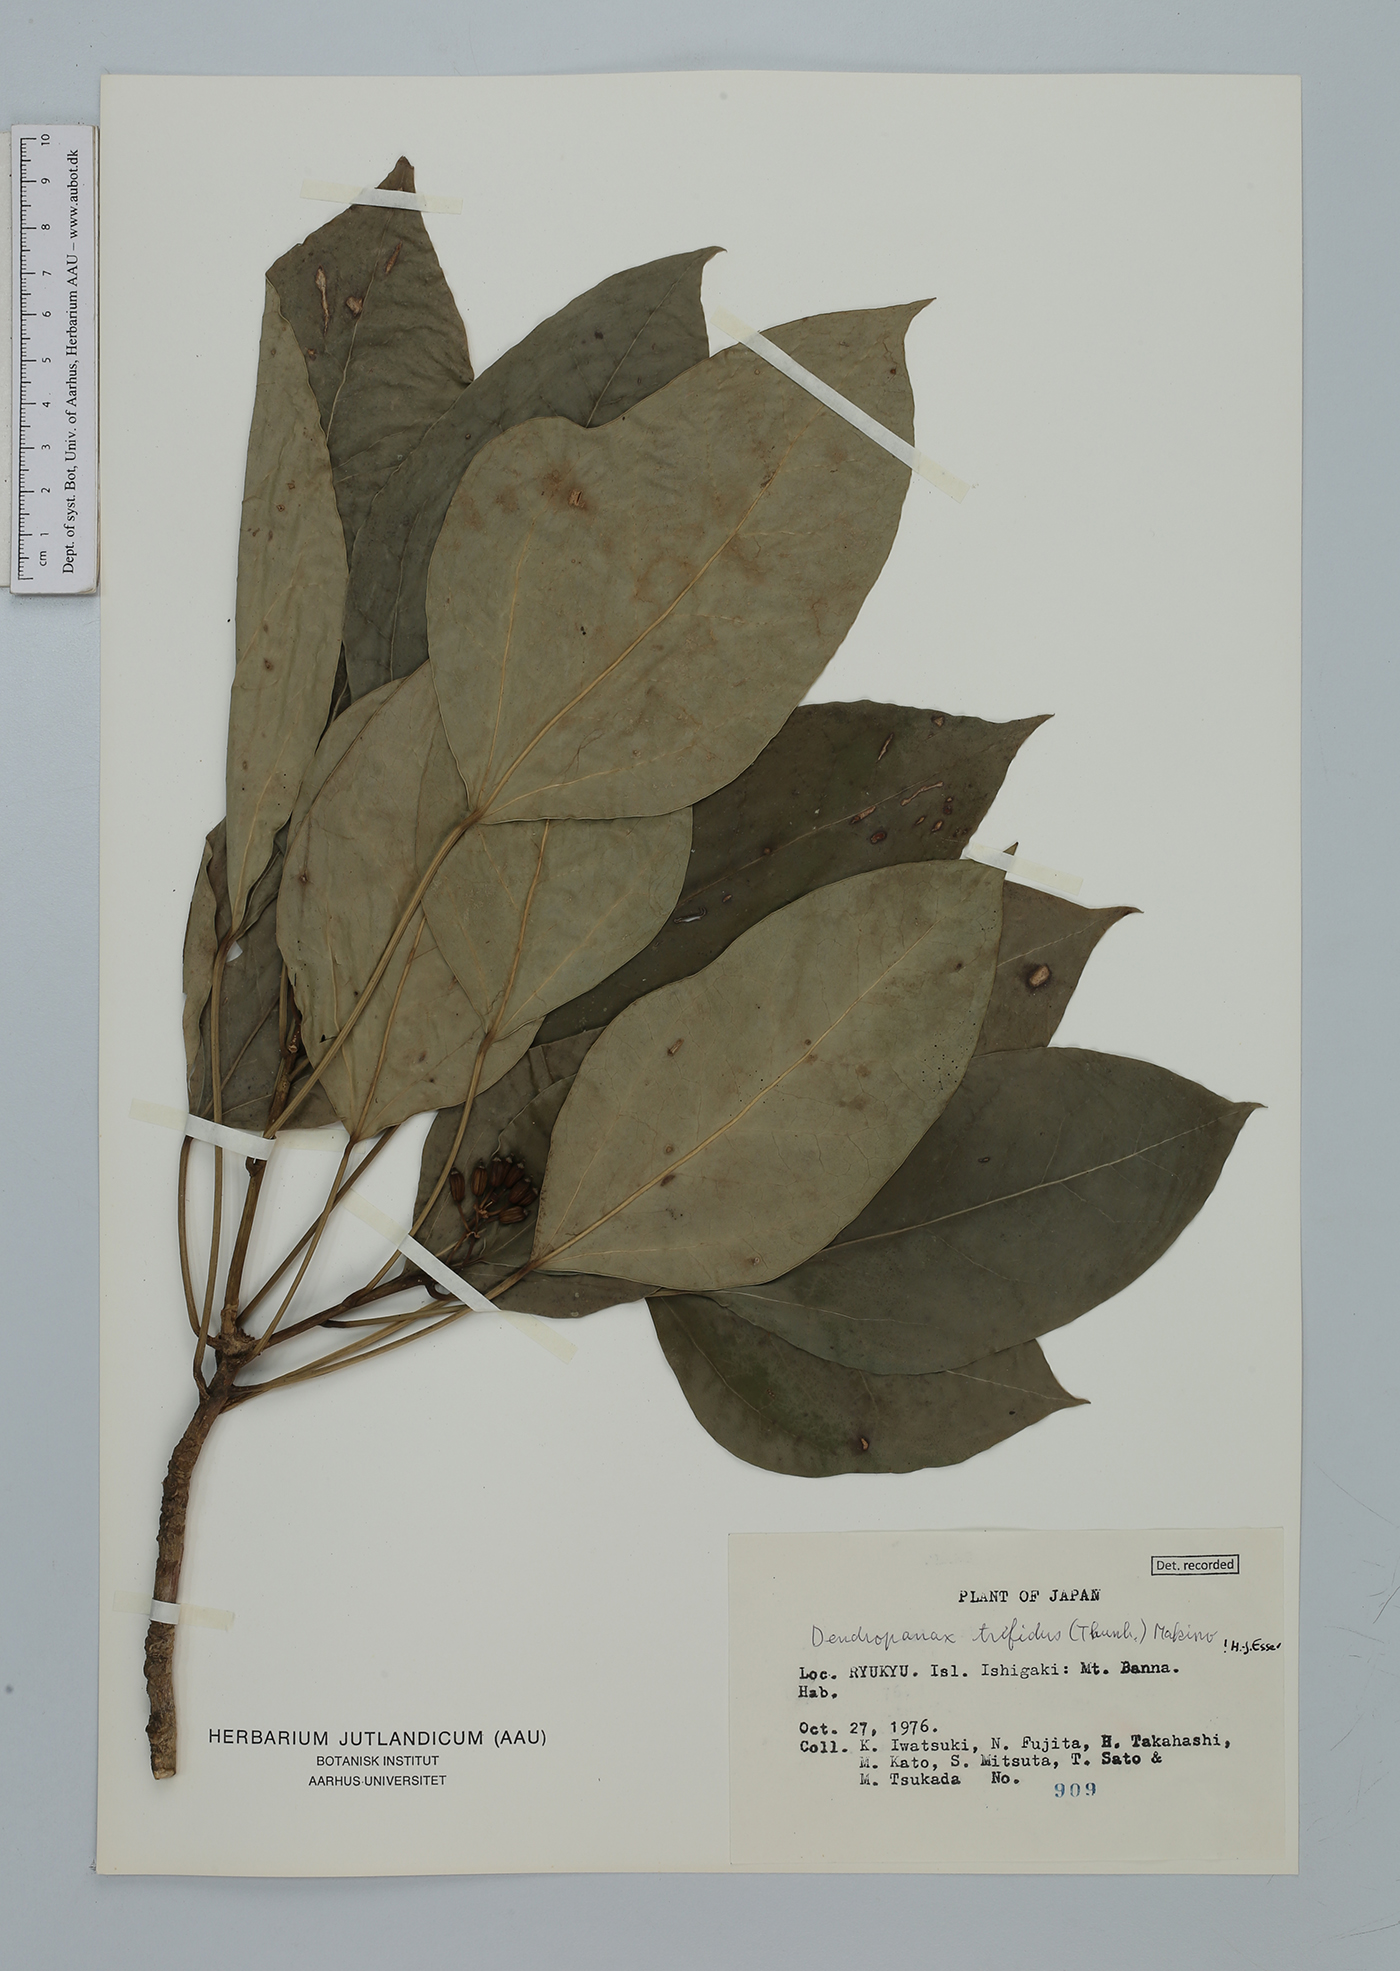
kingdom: Plantae
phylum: Tracheophyta
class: Magnoliopsida
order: Apiales
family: Araliaceae
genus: Dendropanax
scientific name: Dendropanax trifidus
